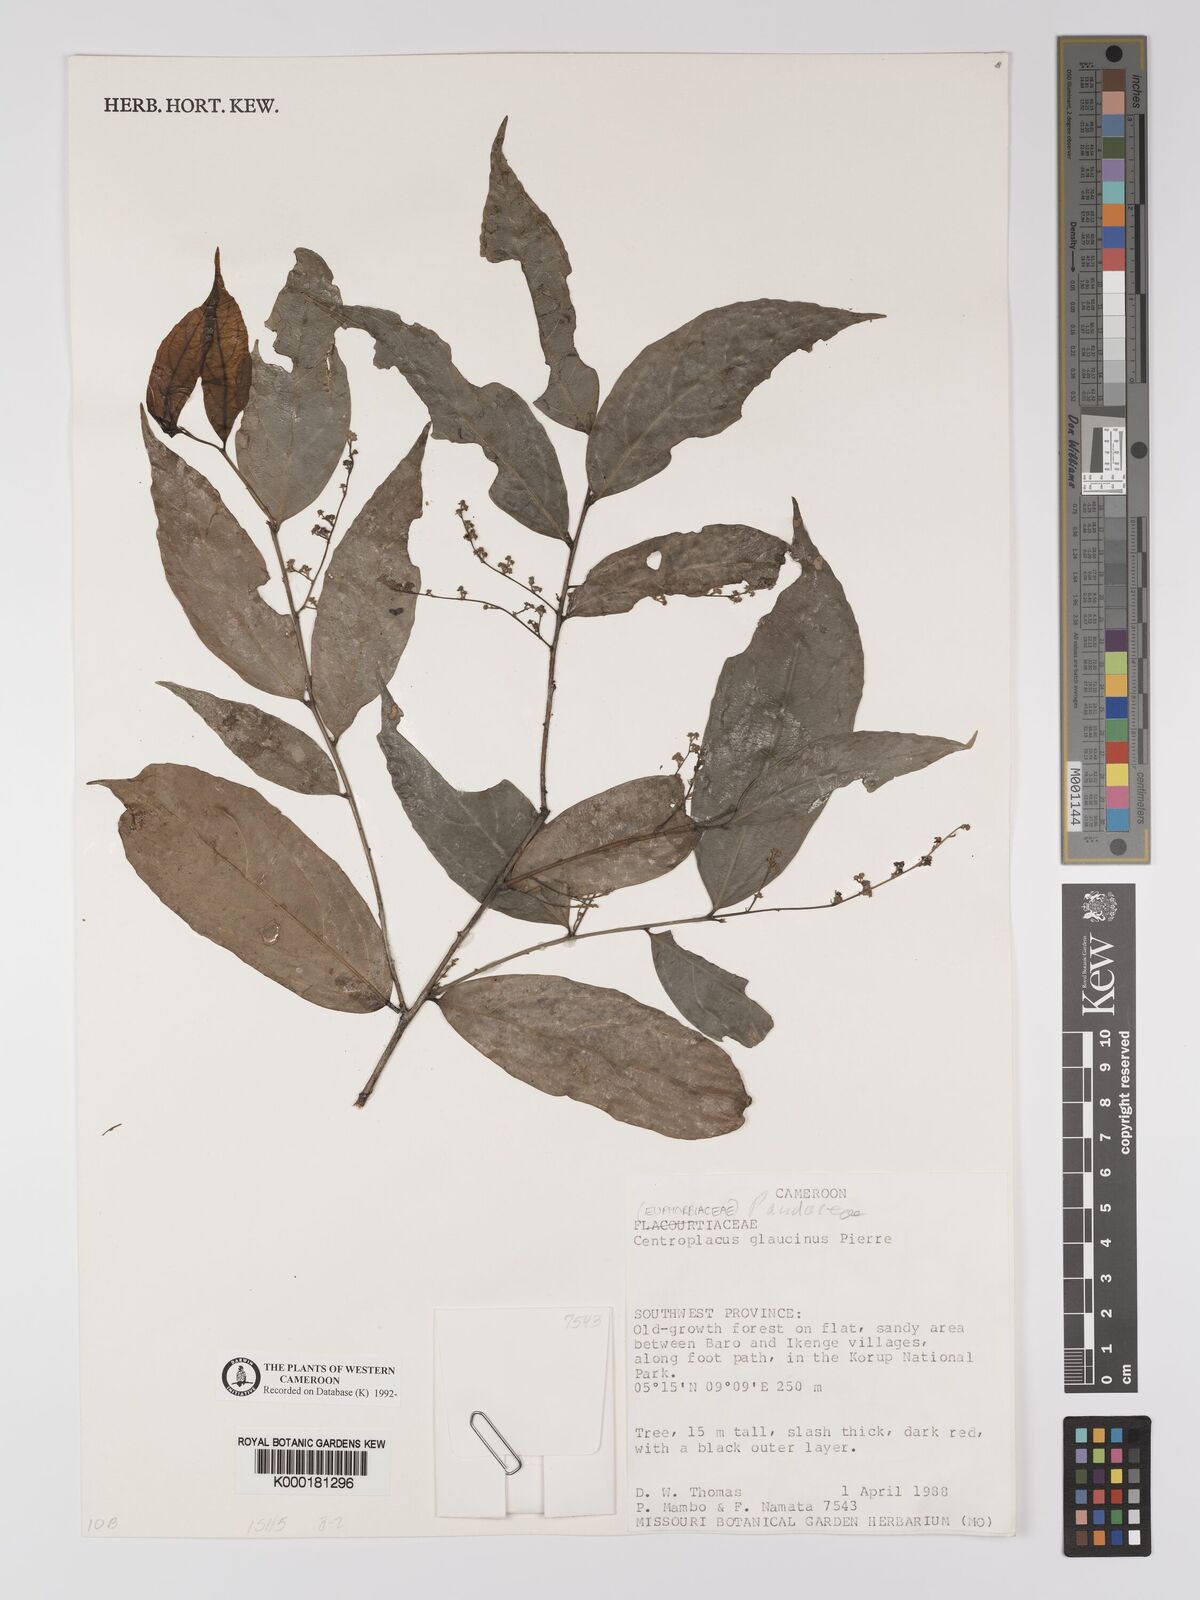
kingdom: Plantae
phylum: Tracheophyta
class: Magnoliopsida
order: Malpighiales
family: Centroplacaceae
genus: Centroplacus
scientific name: Centroplacus glaucinus
